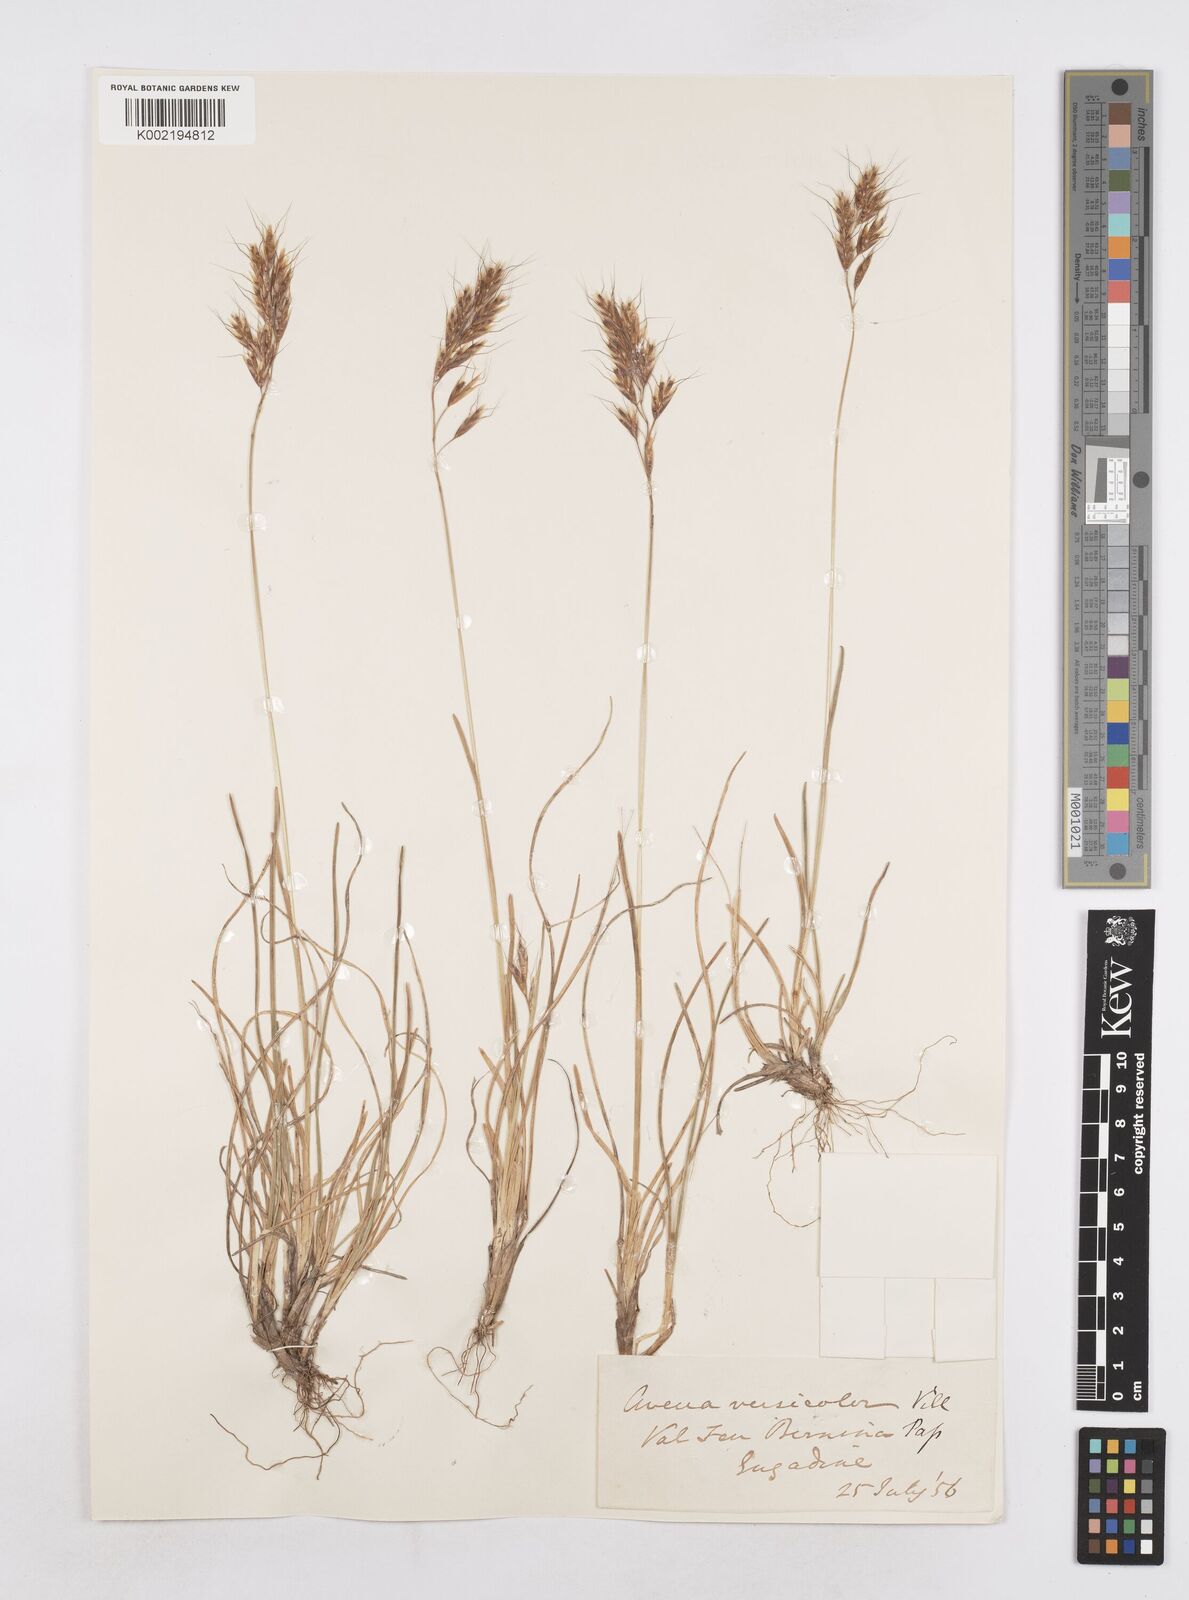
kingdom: Plantae
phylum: Tracheophyta
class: Liliopsida
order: Poales
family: Poaceae
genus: Helictochloa
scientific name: Helictochloa versicolor
